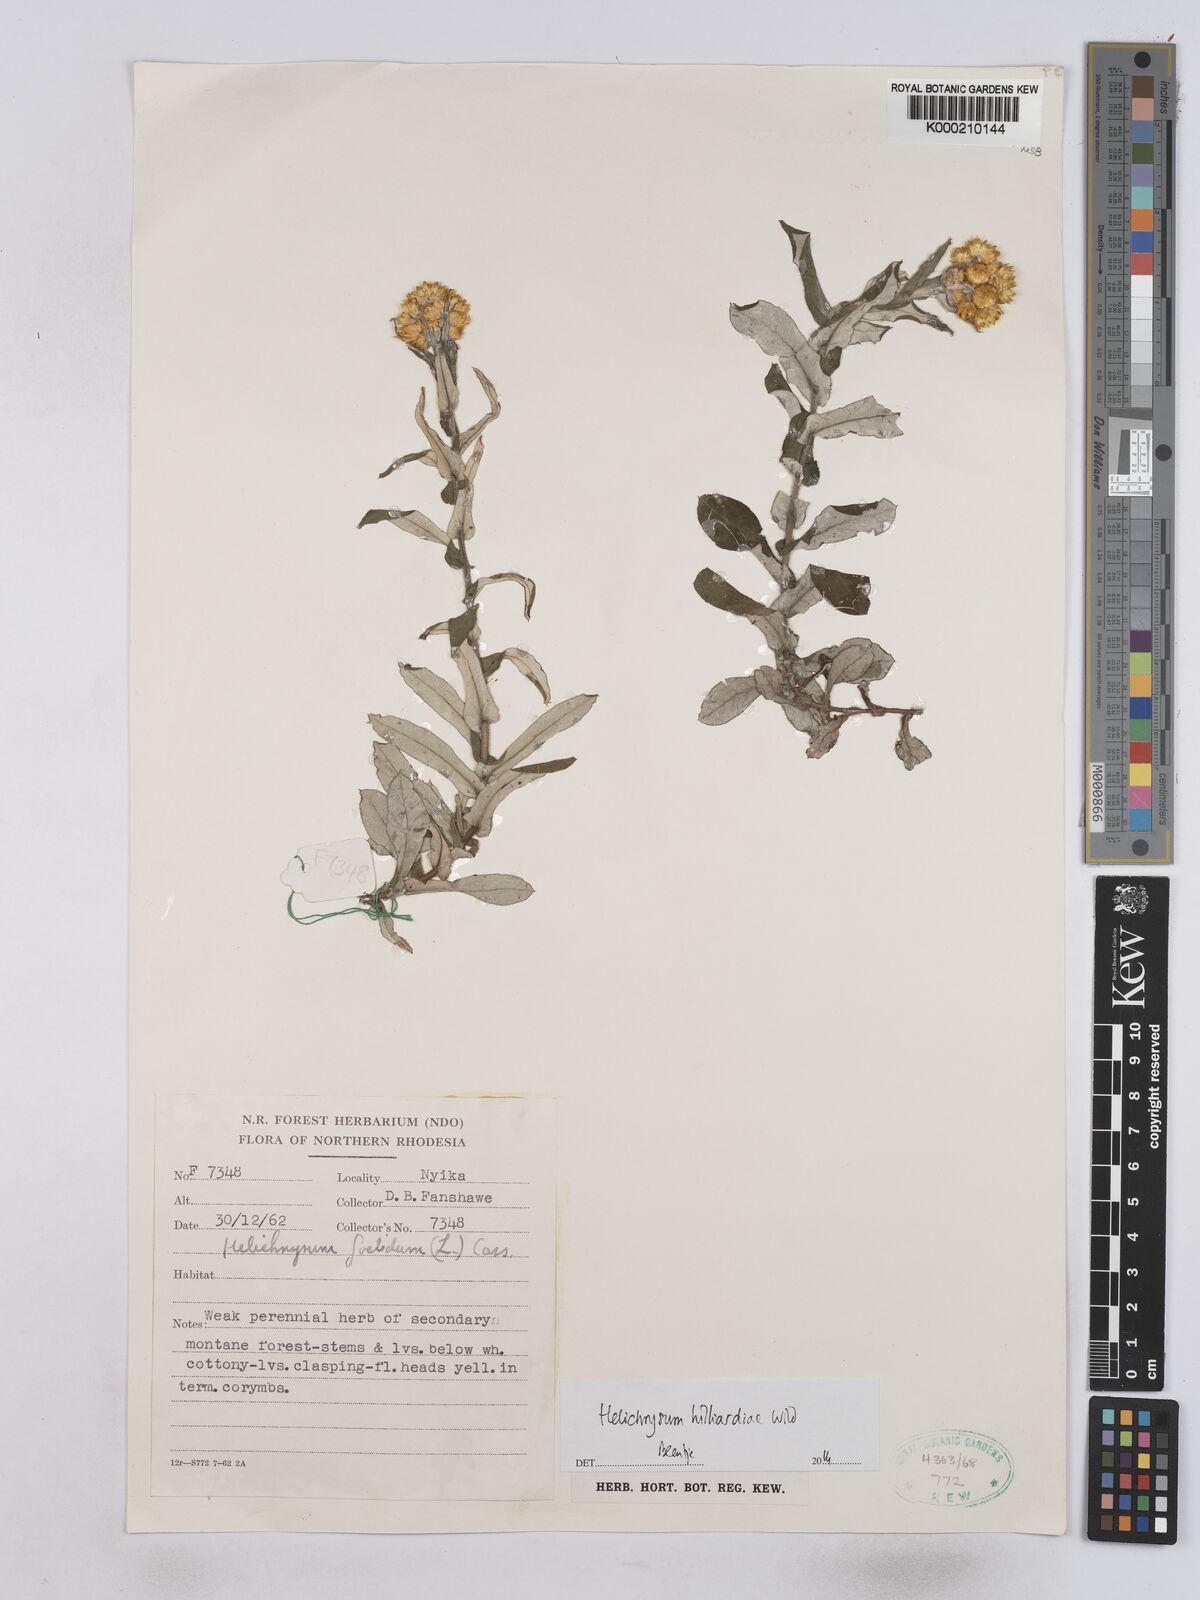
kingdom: Plantae
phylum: Tracheophyta
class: Magnoliopsida
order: Asterales
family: Asteraceae
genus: Helichrysum
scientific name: Helichrysum hilliardiae
